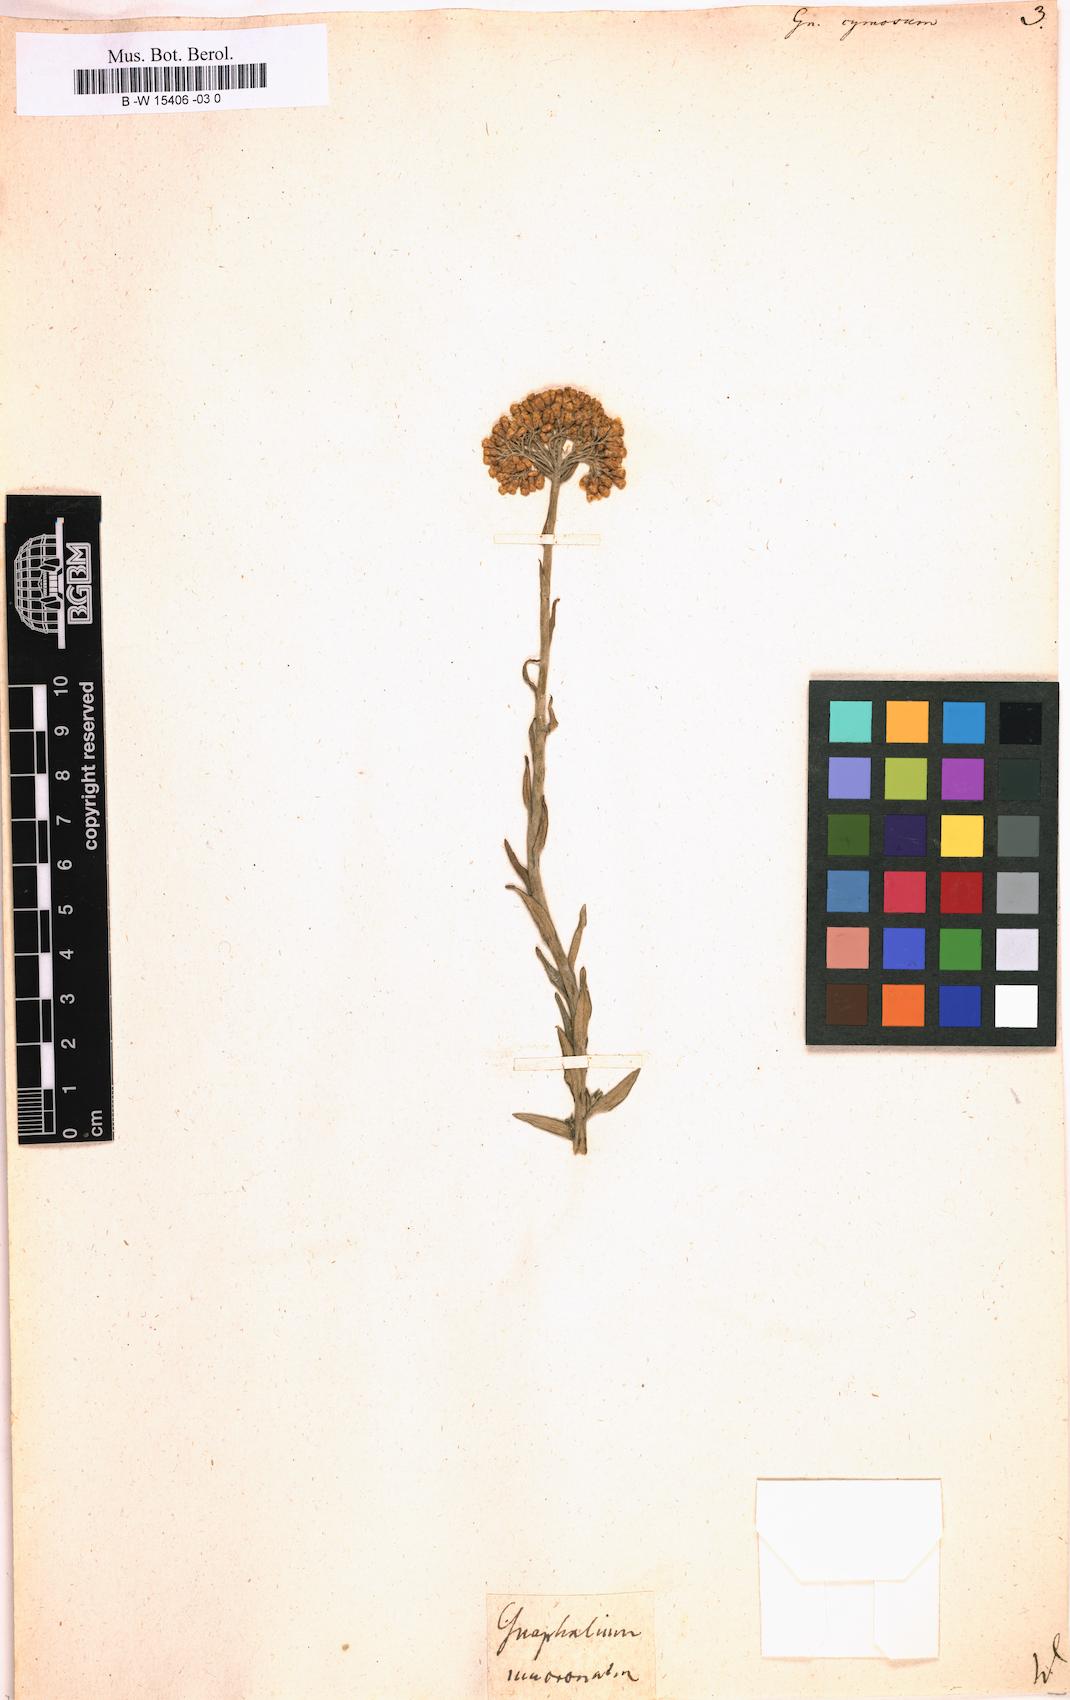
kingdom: Plantae
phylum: Tracheophyta
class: Magnoliopsida
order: Asterales
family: Asteraceae
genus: Helichrysum
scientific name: Helichrysum cymosum
